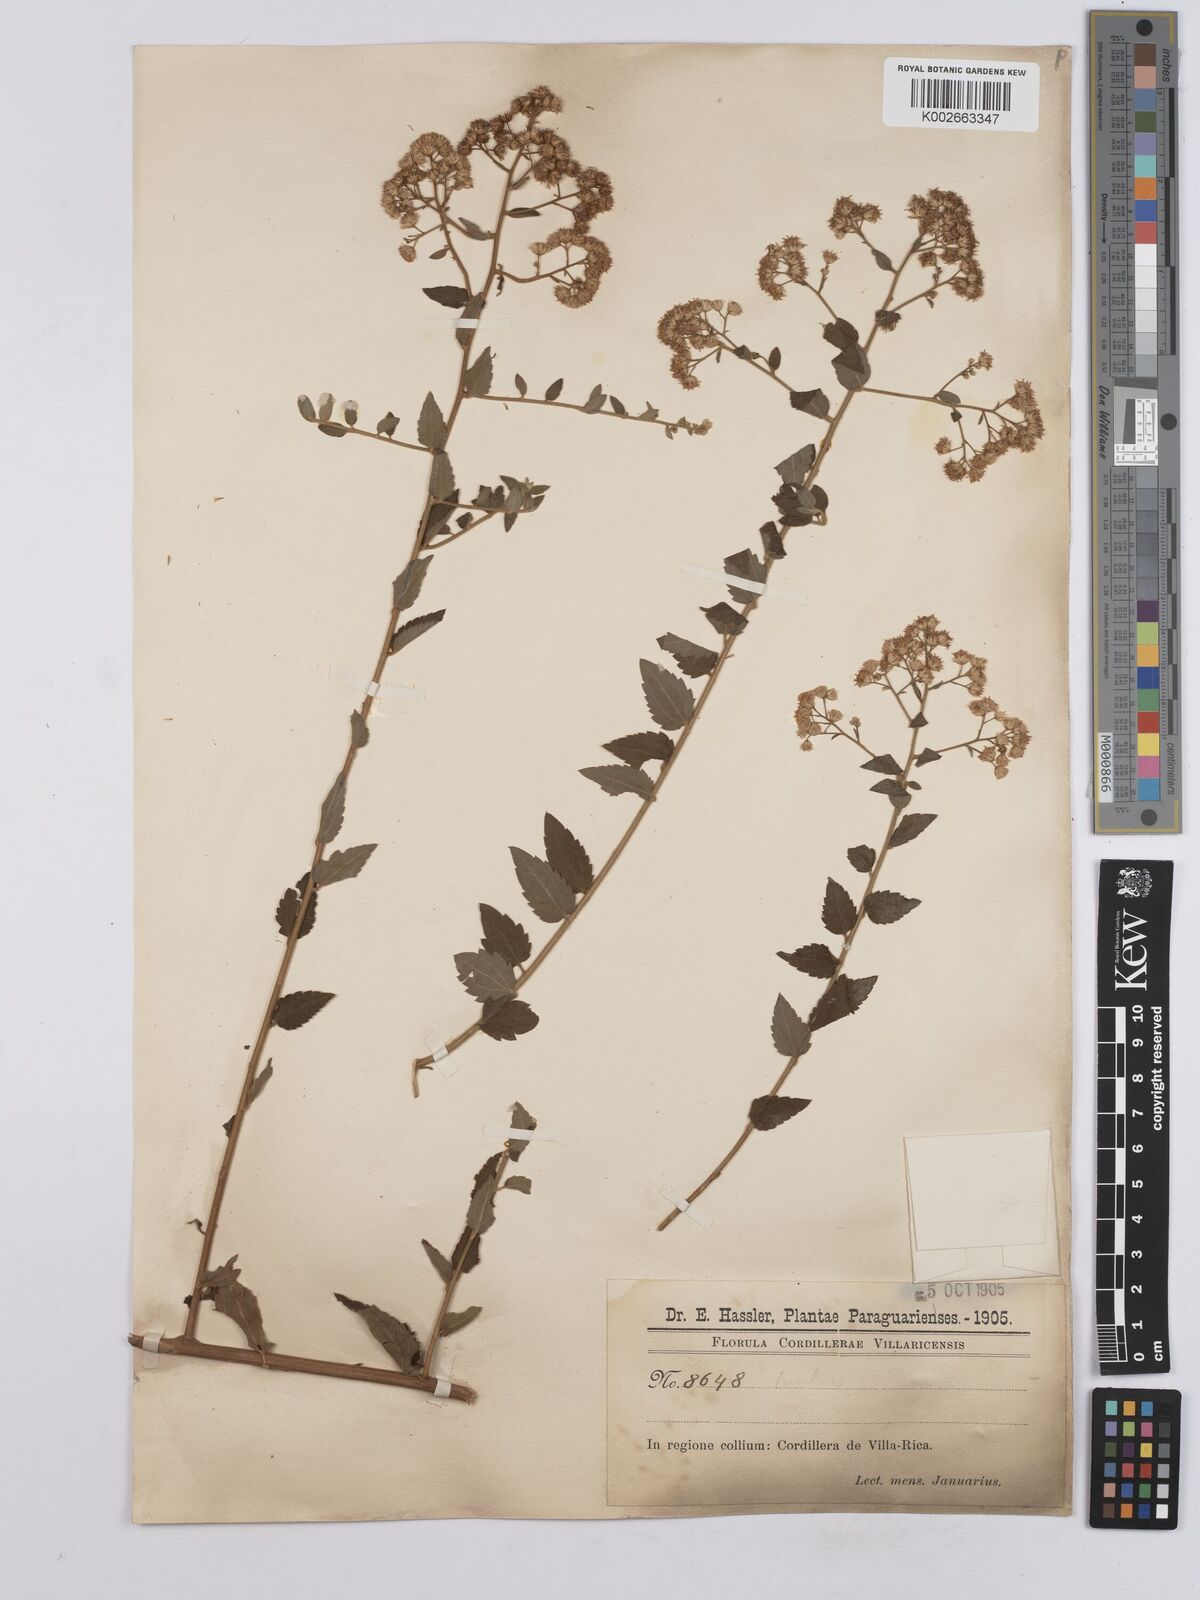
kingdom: Plantae
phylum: Tracheophyta
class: Magnoliopsida
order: Asterales
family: Asteraceae
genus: Baccharis
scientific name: Baccharis anomala
